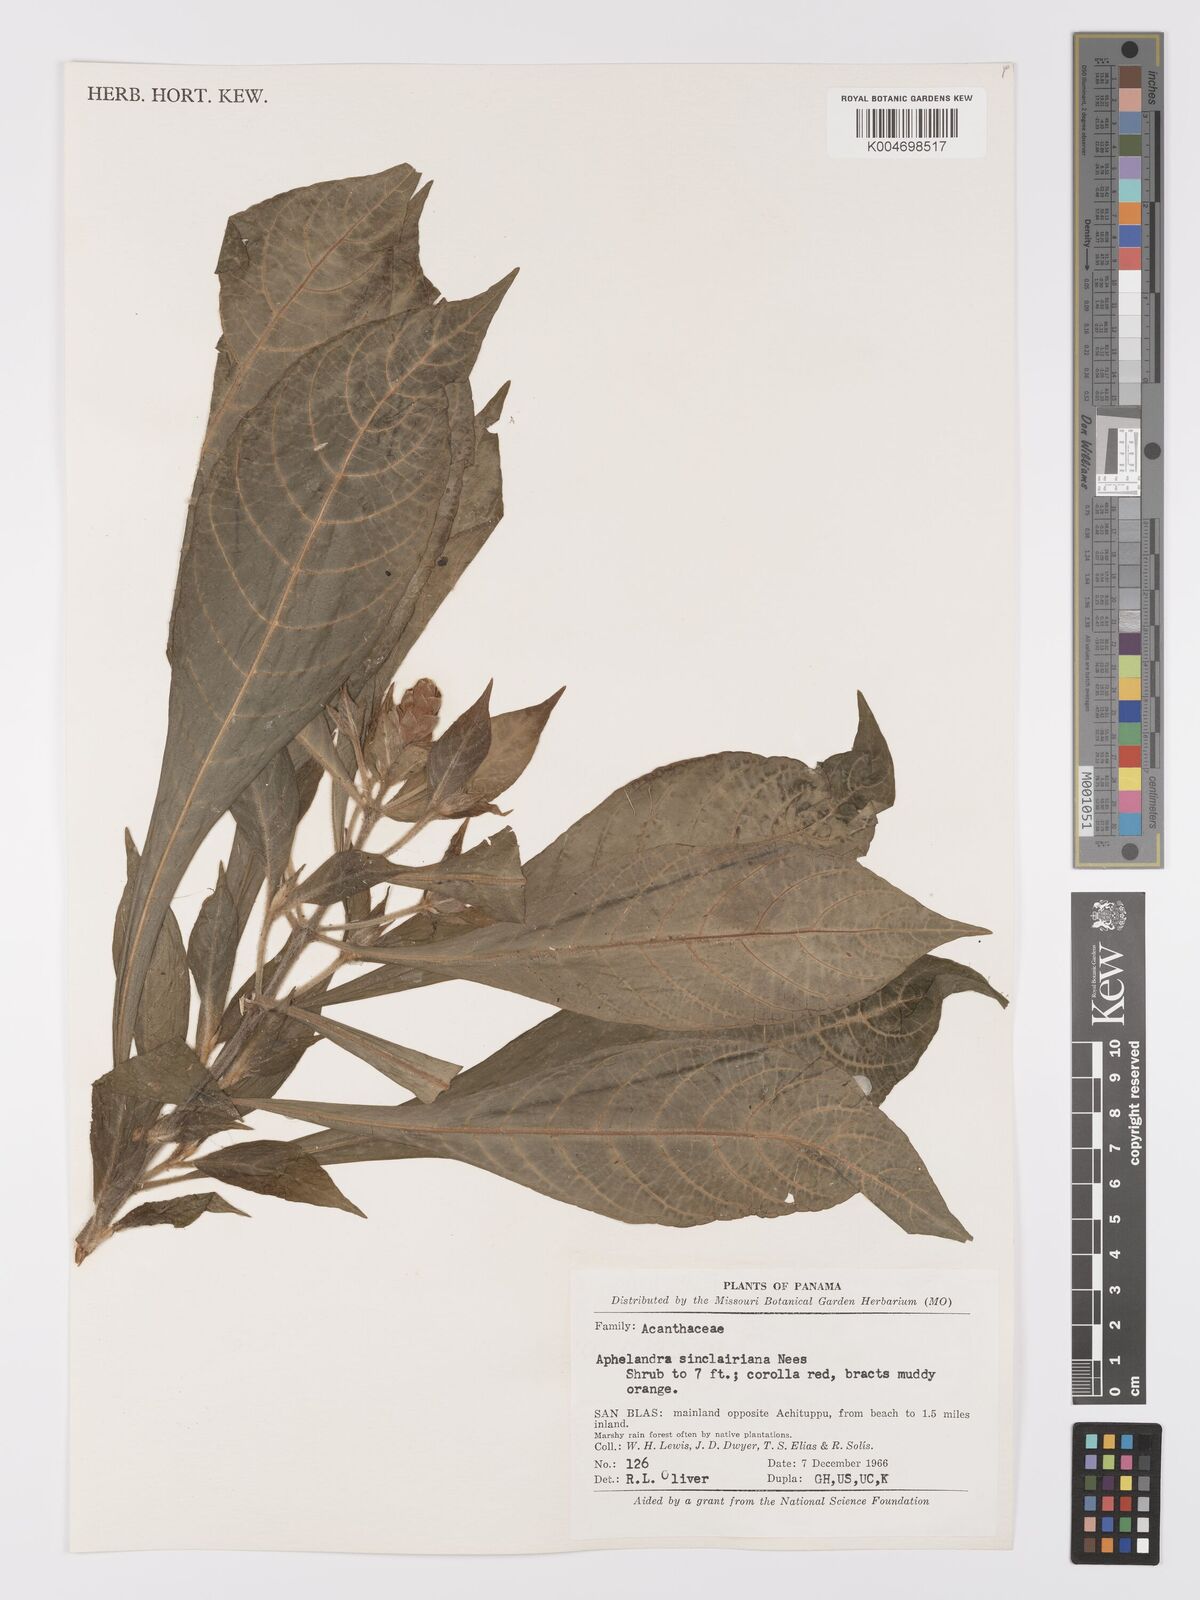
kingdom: Plantae
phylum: Tracheophyta
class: Magnoliopsida
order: Lamiales
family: Acanthaceae
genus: Aphelandra
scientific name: Aphelandra sinclairiana
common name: Coral aphelandra
